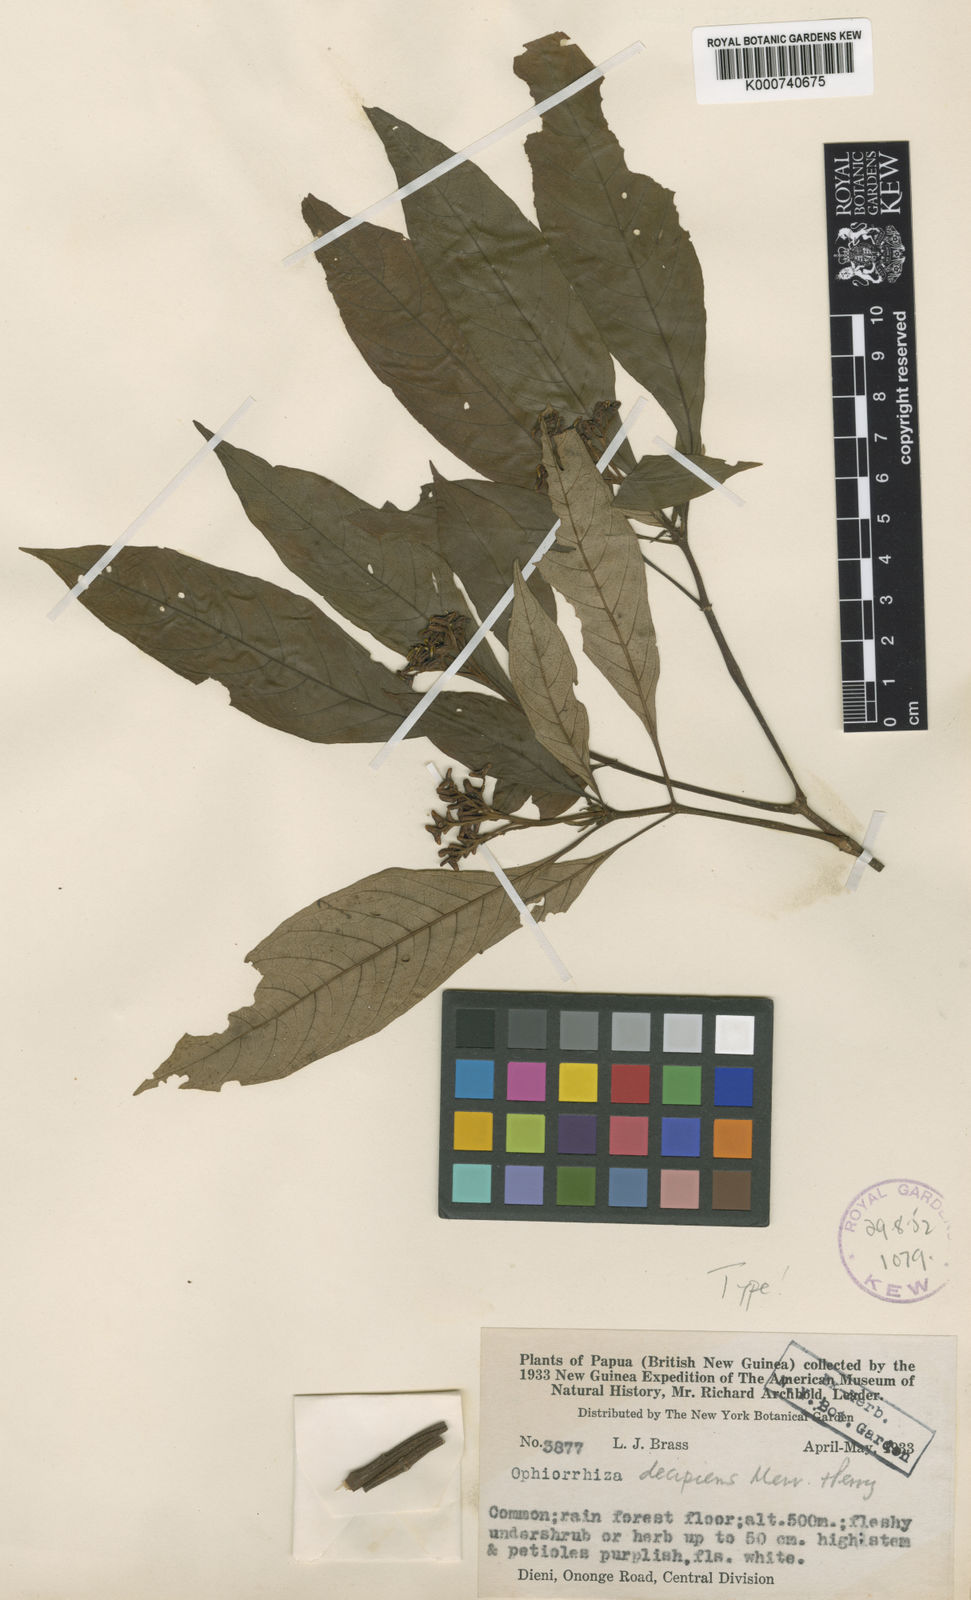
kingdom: Plantae
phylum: Tracheophyta
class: Magnoliopsida
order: Gentianales
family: Rubiaceae
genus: Ophiorrhiza
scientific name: Ophiorrhiza decipiens
